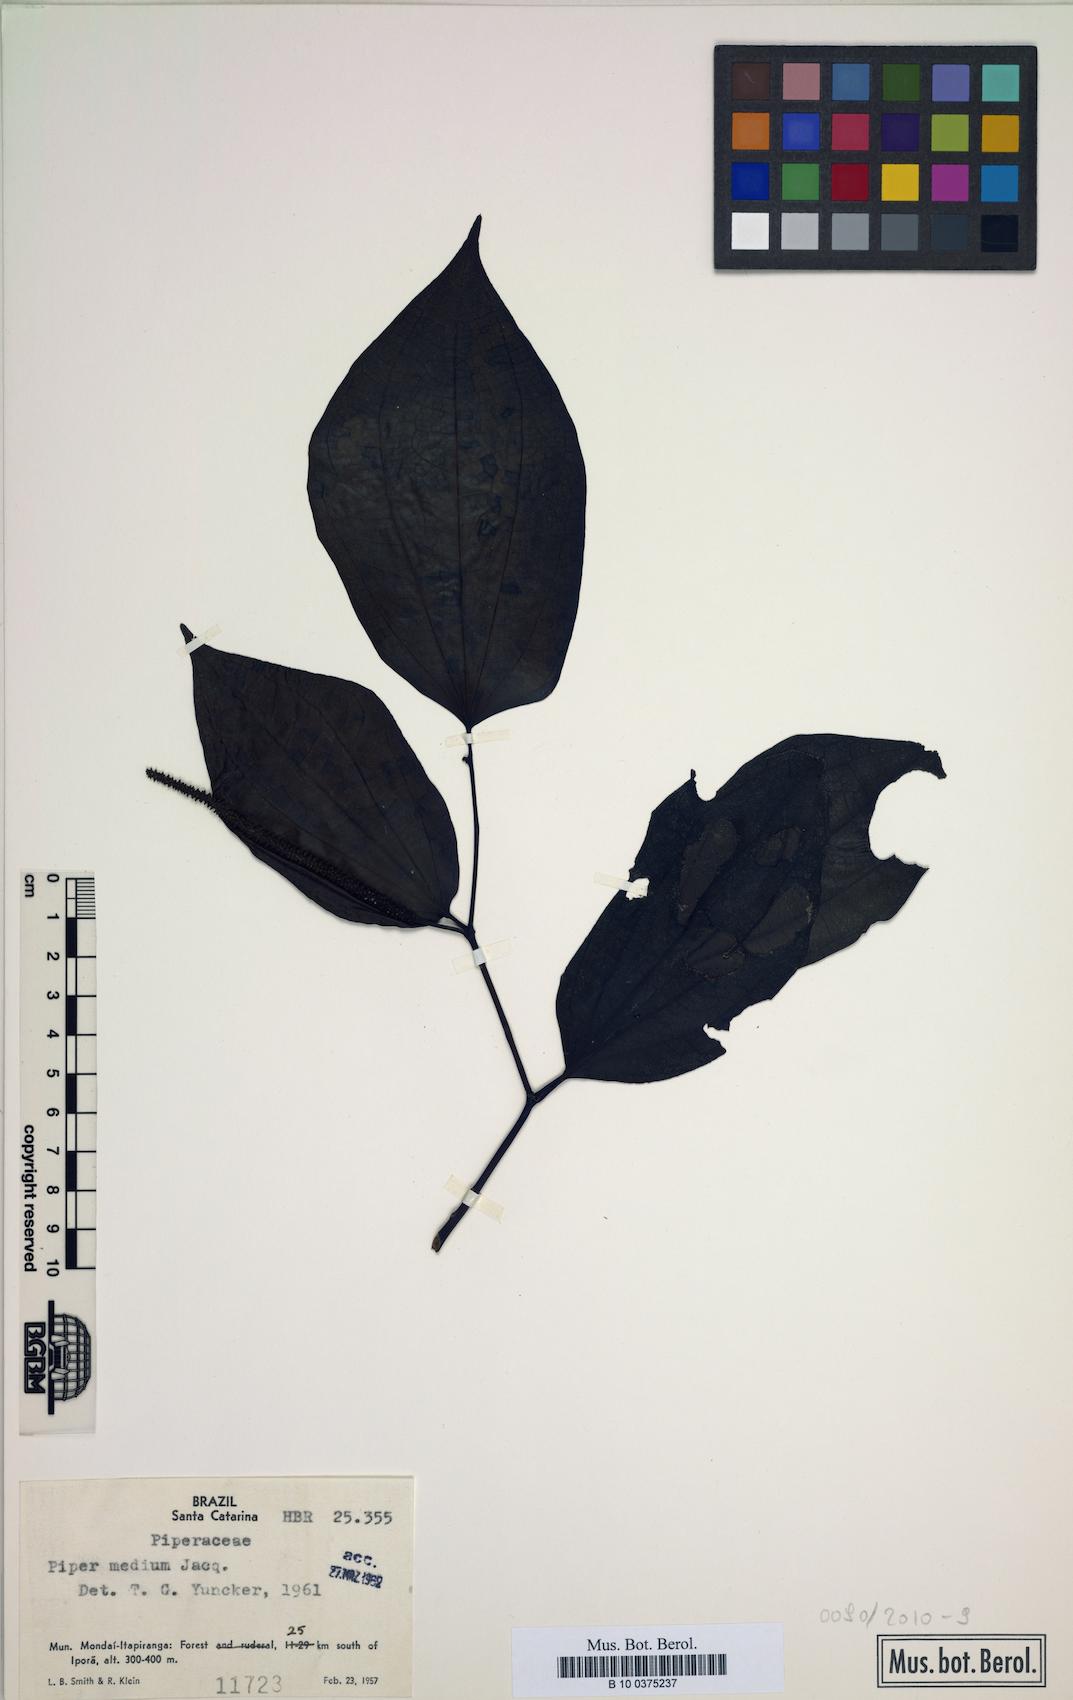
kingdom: Plantae
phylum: Tracheophyta
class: Magnoliopsida
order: Piperales
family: Piperaceae
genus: Piper
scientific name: Piper amalago
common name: Pepper-elder
